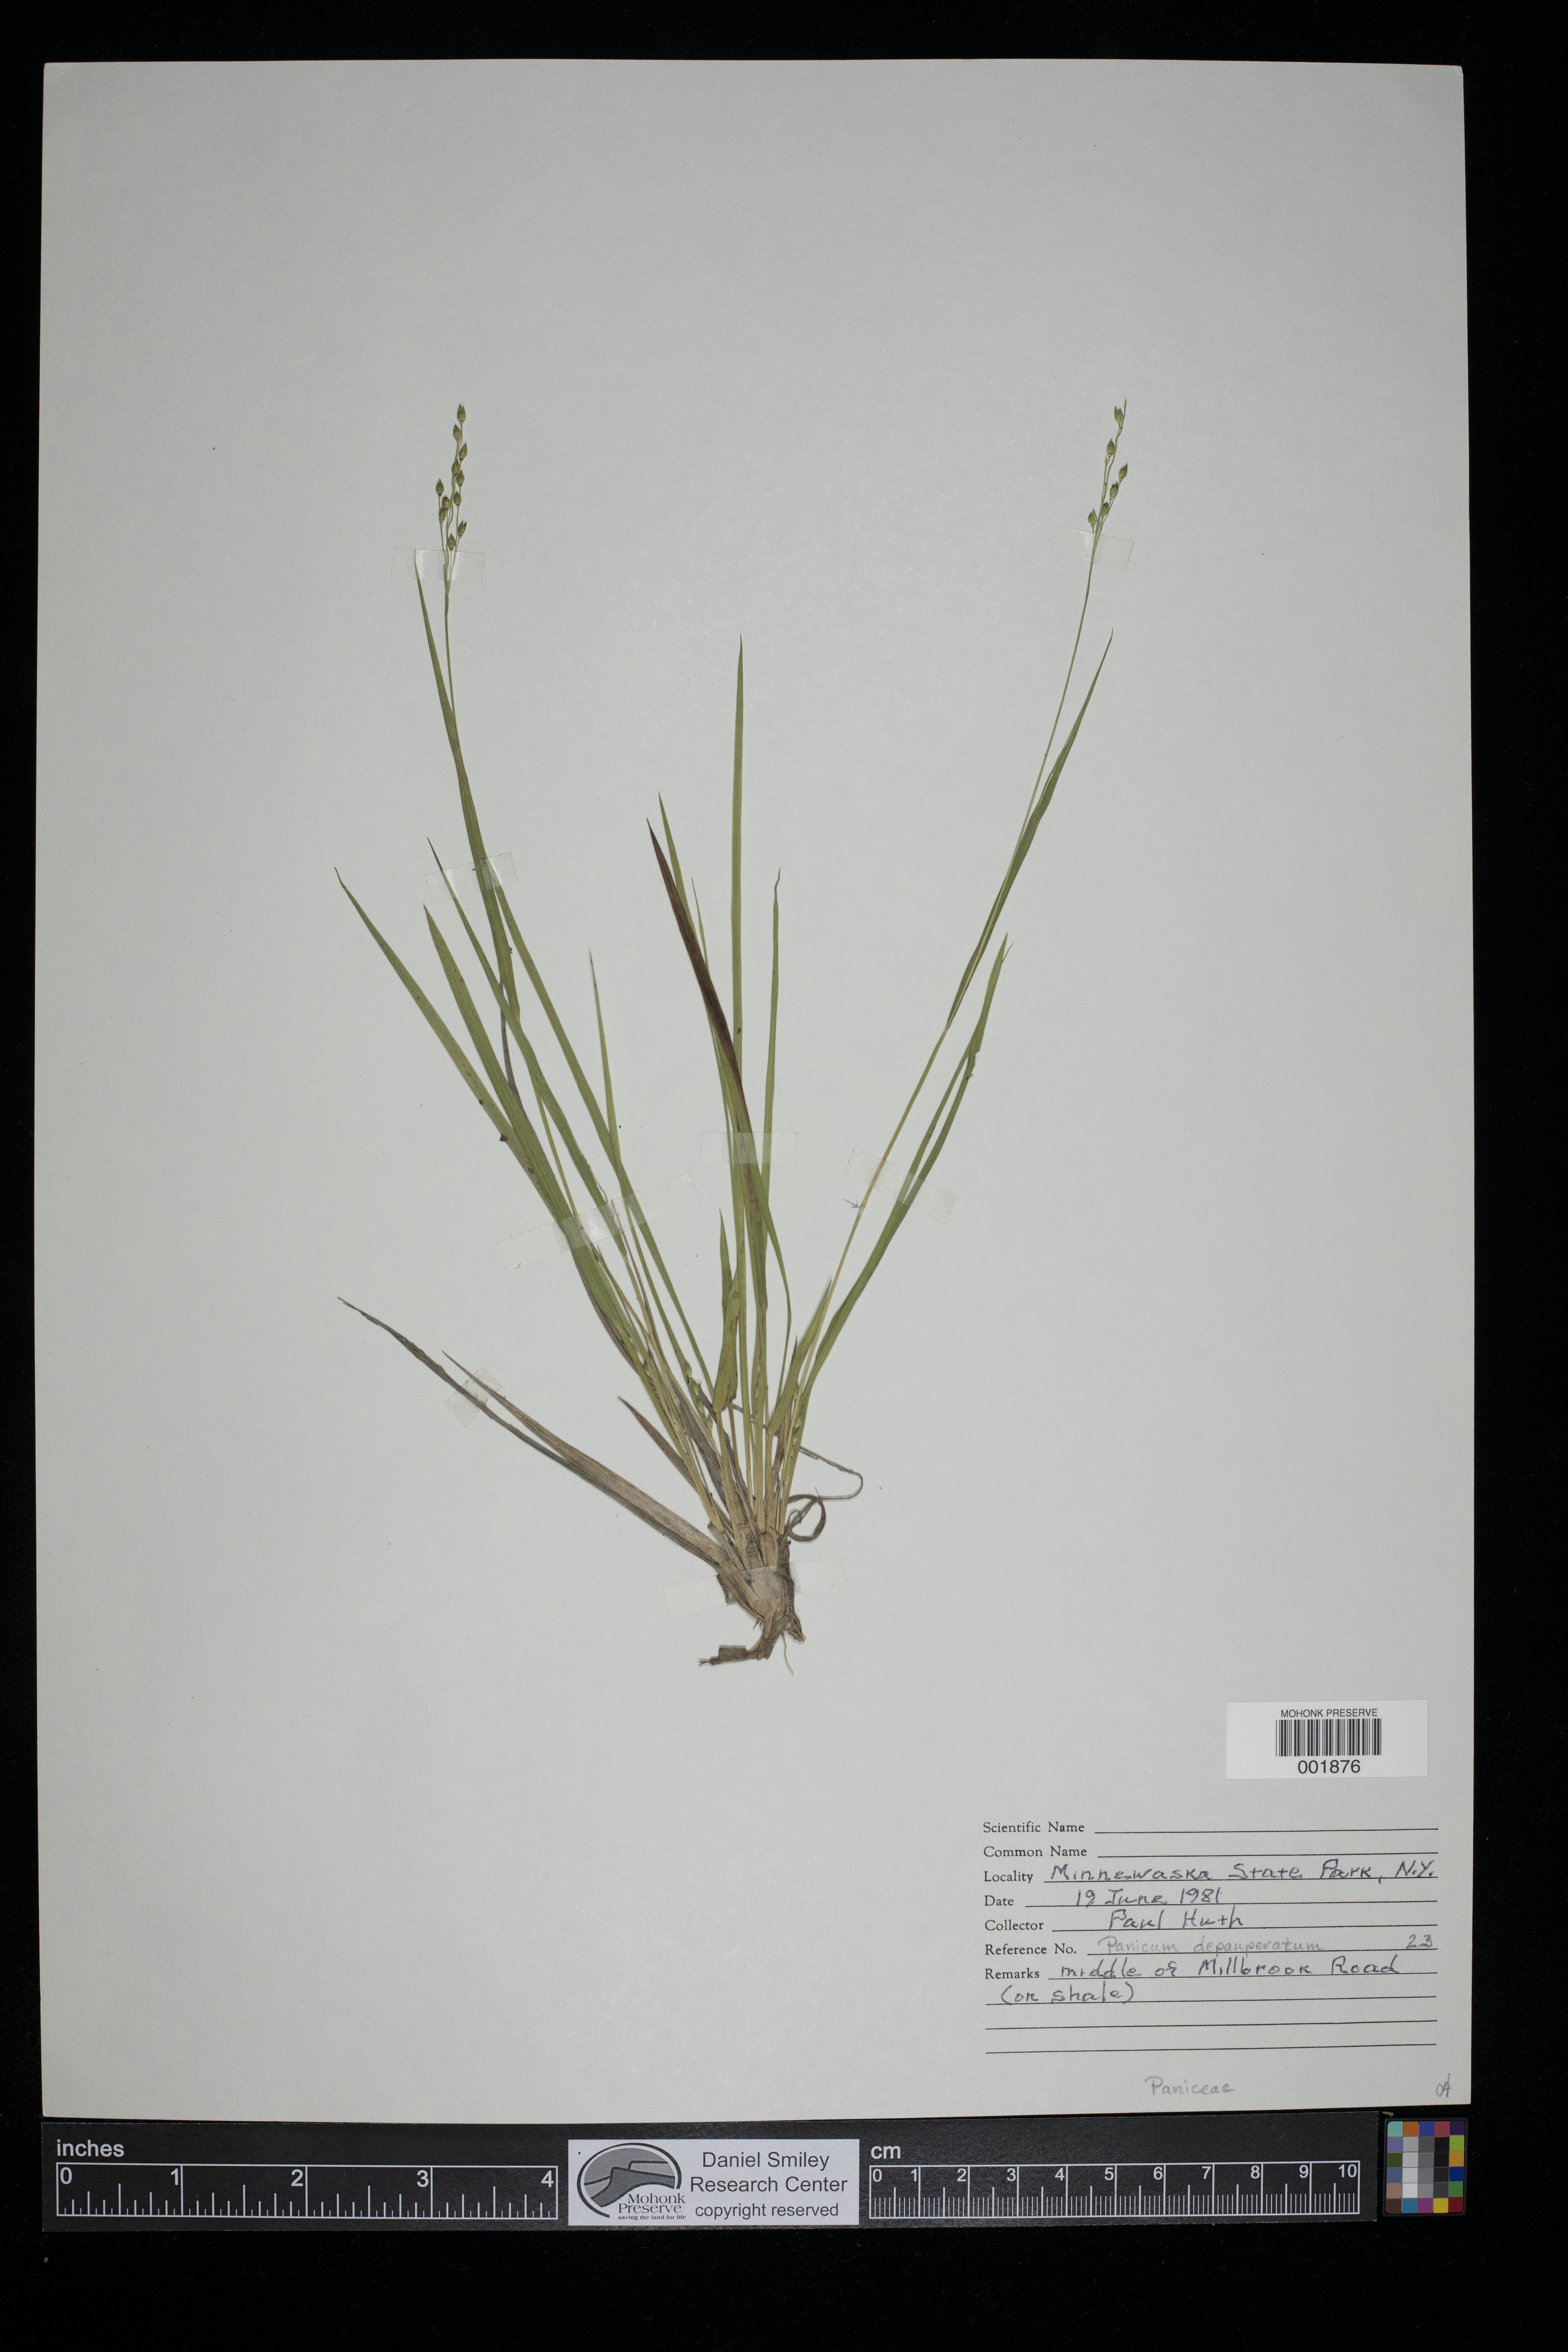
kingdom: Plantae
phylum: Tracheophyta
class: Liliopsida
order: Poales
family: Poaceae
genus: Dichanthelium
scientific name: Dichanthelium depauperatum
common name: Depauperate panicgrass
